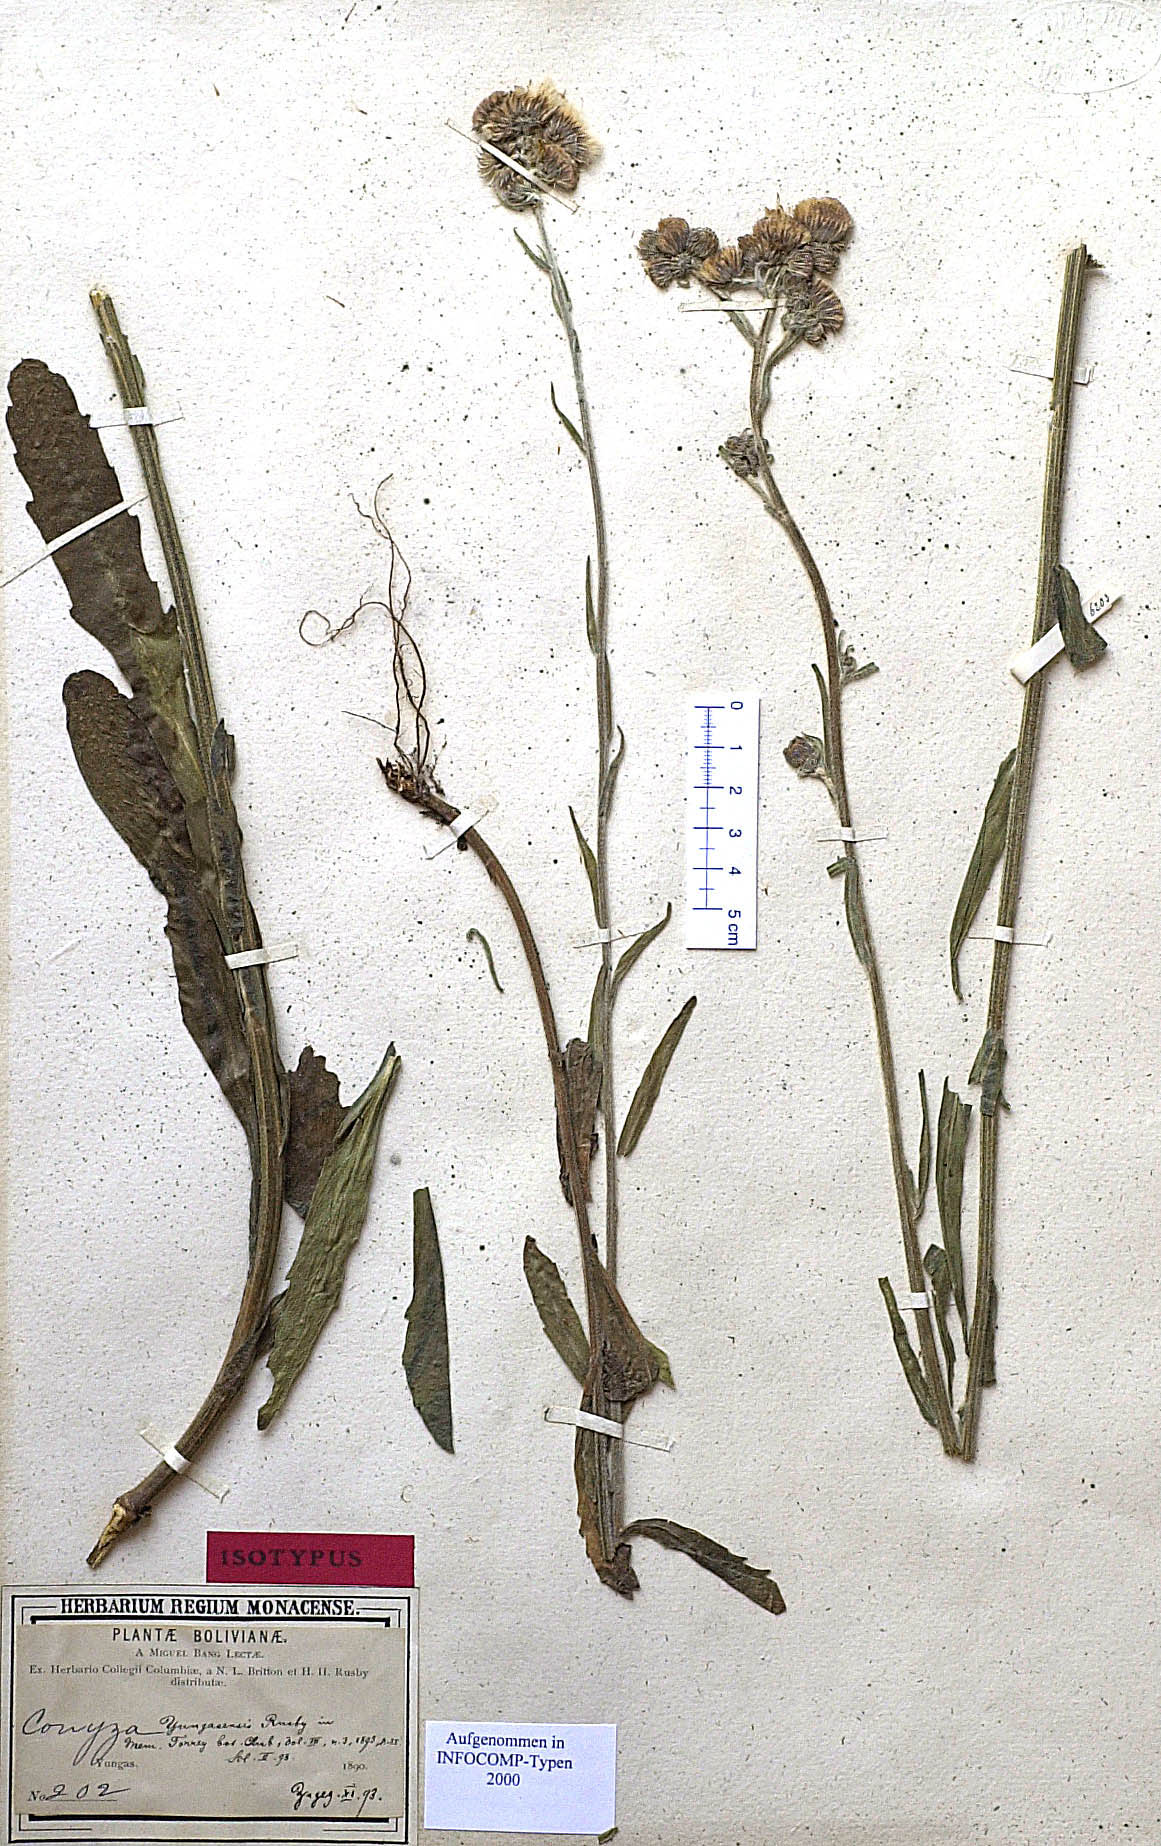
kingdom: Plantae
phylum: Tracheophyta
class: Magnoliopsida
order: Asterales
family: Asteraceae
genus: Erigeron
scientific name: Erigeron primulifolius
